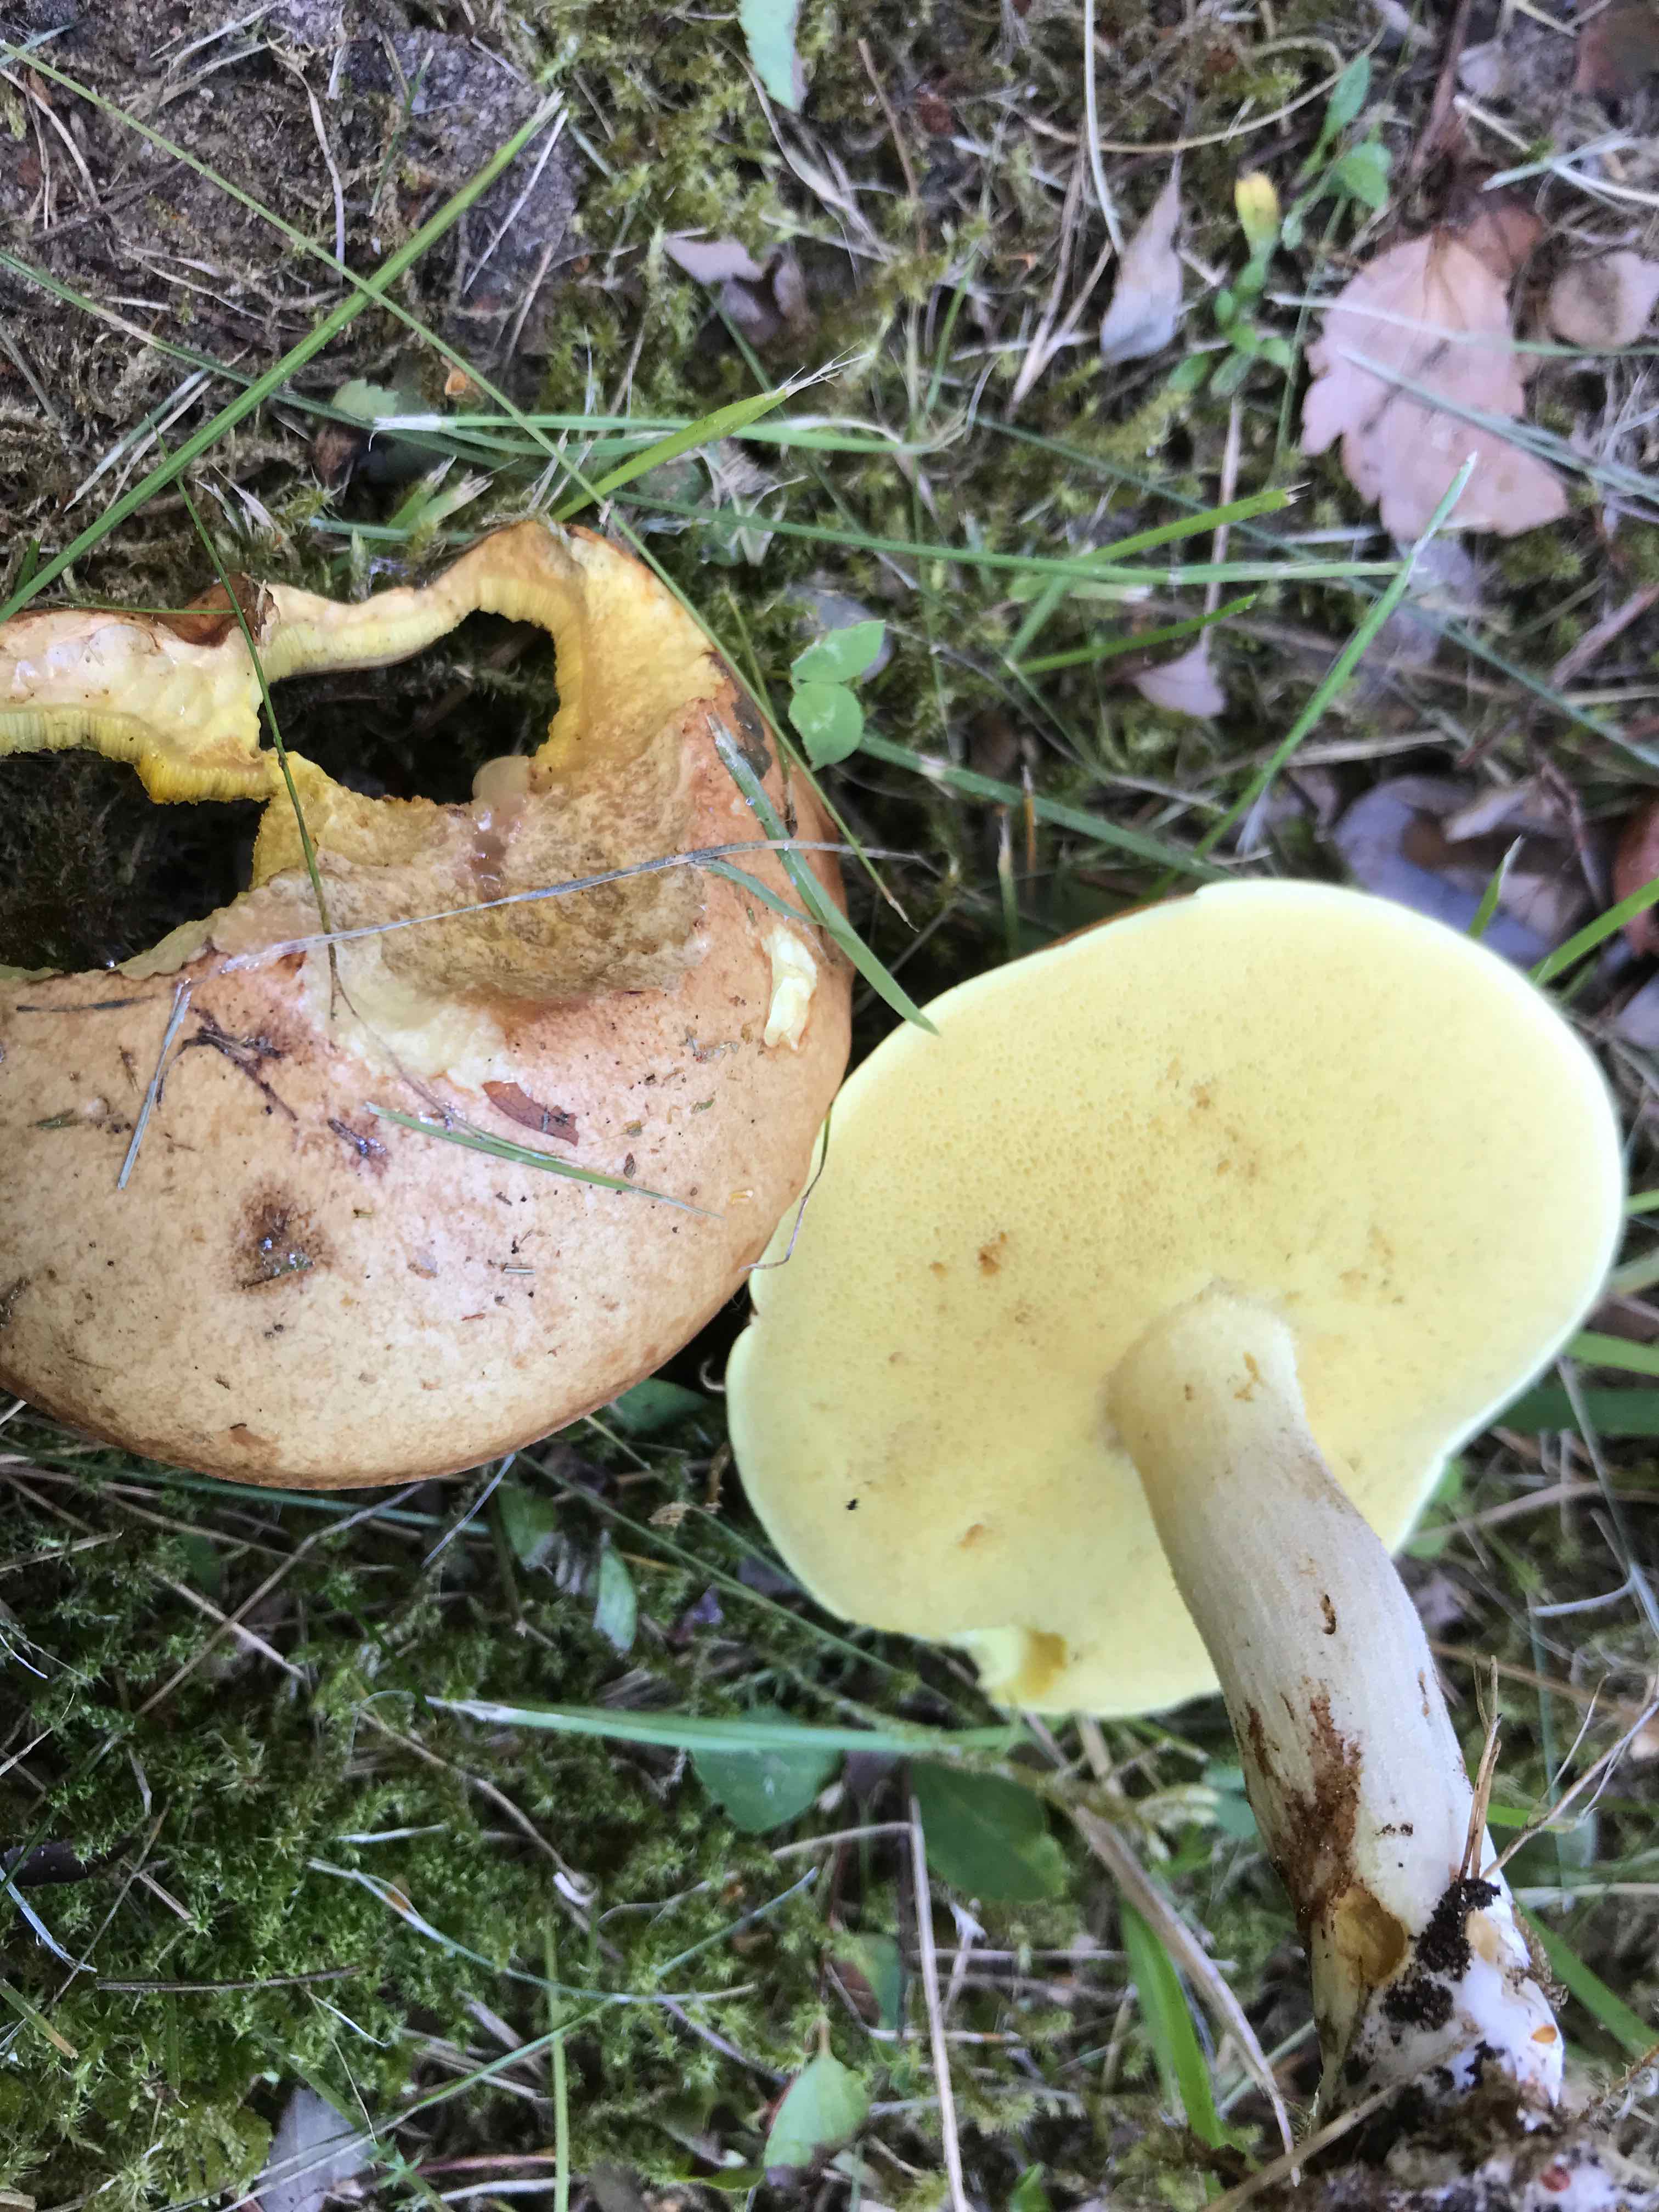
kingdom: Fungi
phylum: Basidiomycota
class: Agaricomycetes
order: Boletales
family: Suillaceae
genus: Suillus
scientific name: Suillus granulatus
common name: kornet slimrørhat
